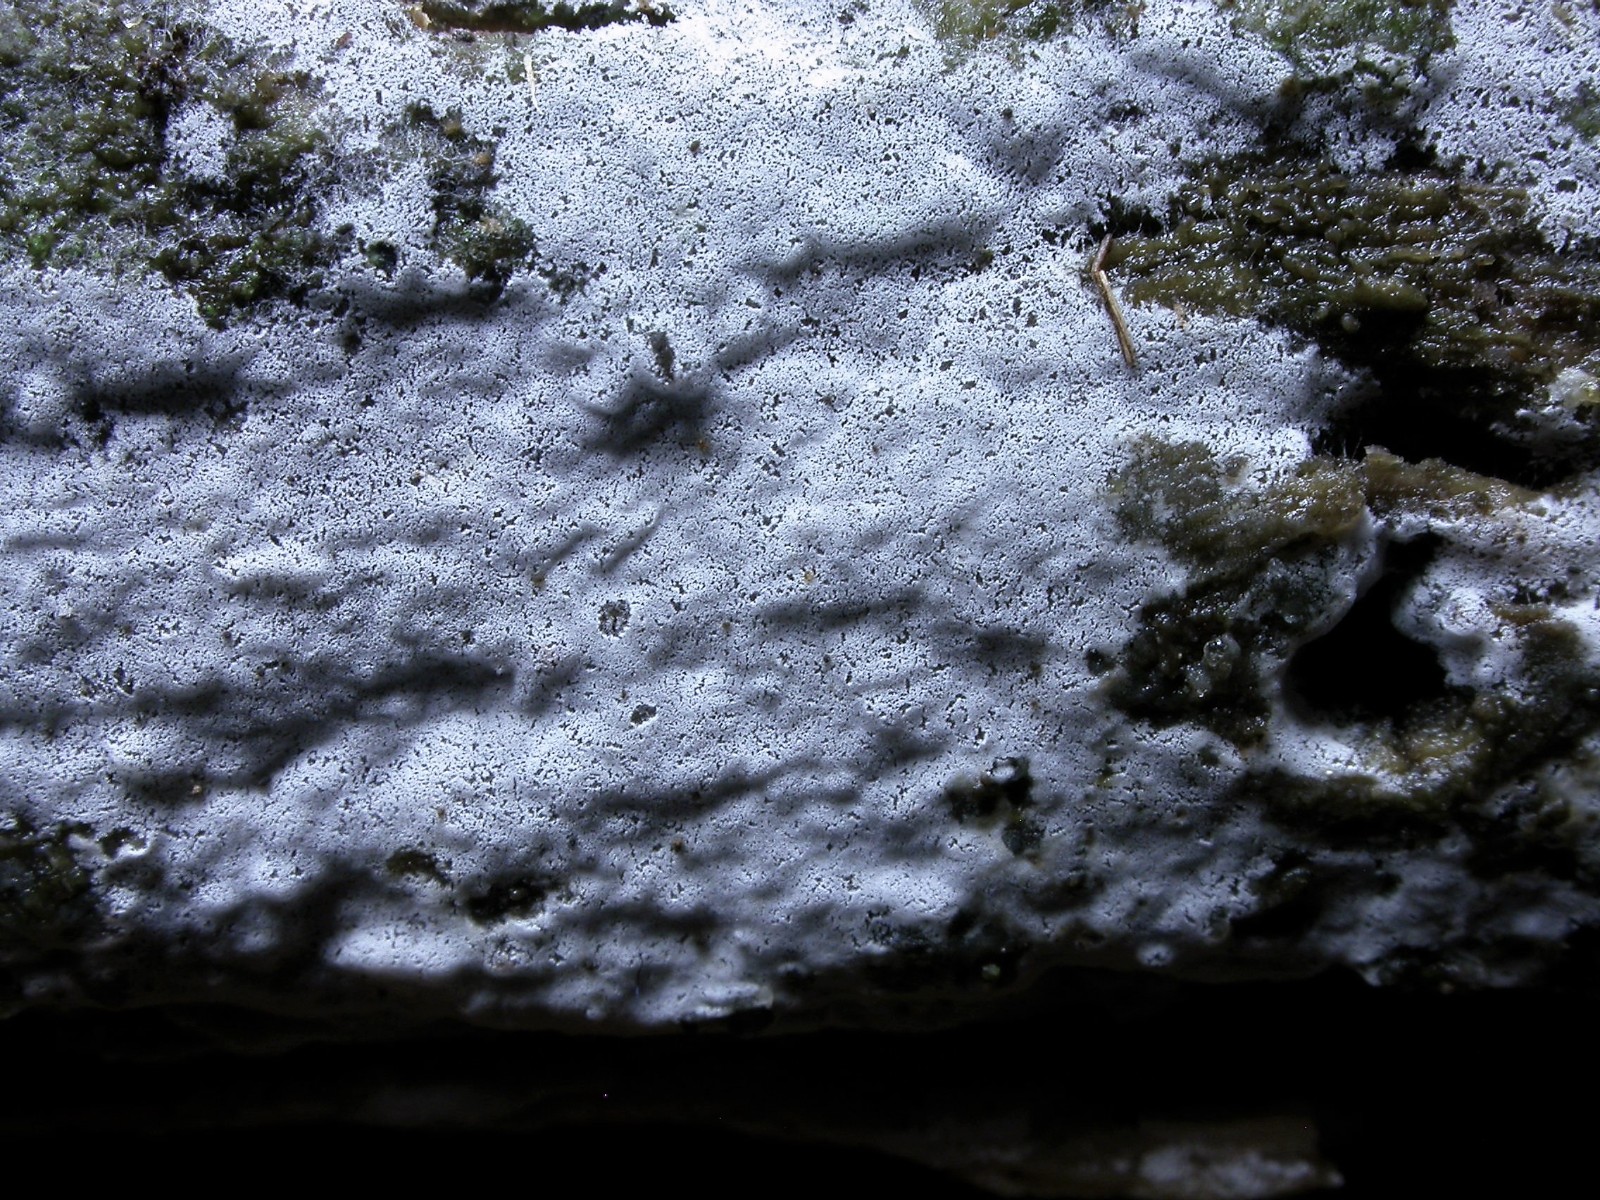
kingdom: Fungi
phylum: Basidiomycota
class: Agaricomycetes
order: Atheliales
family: Atheliaceae
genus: Athelia
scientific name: Athelia epiphylla
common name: almindelig barkhinde
